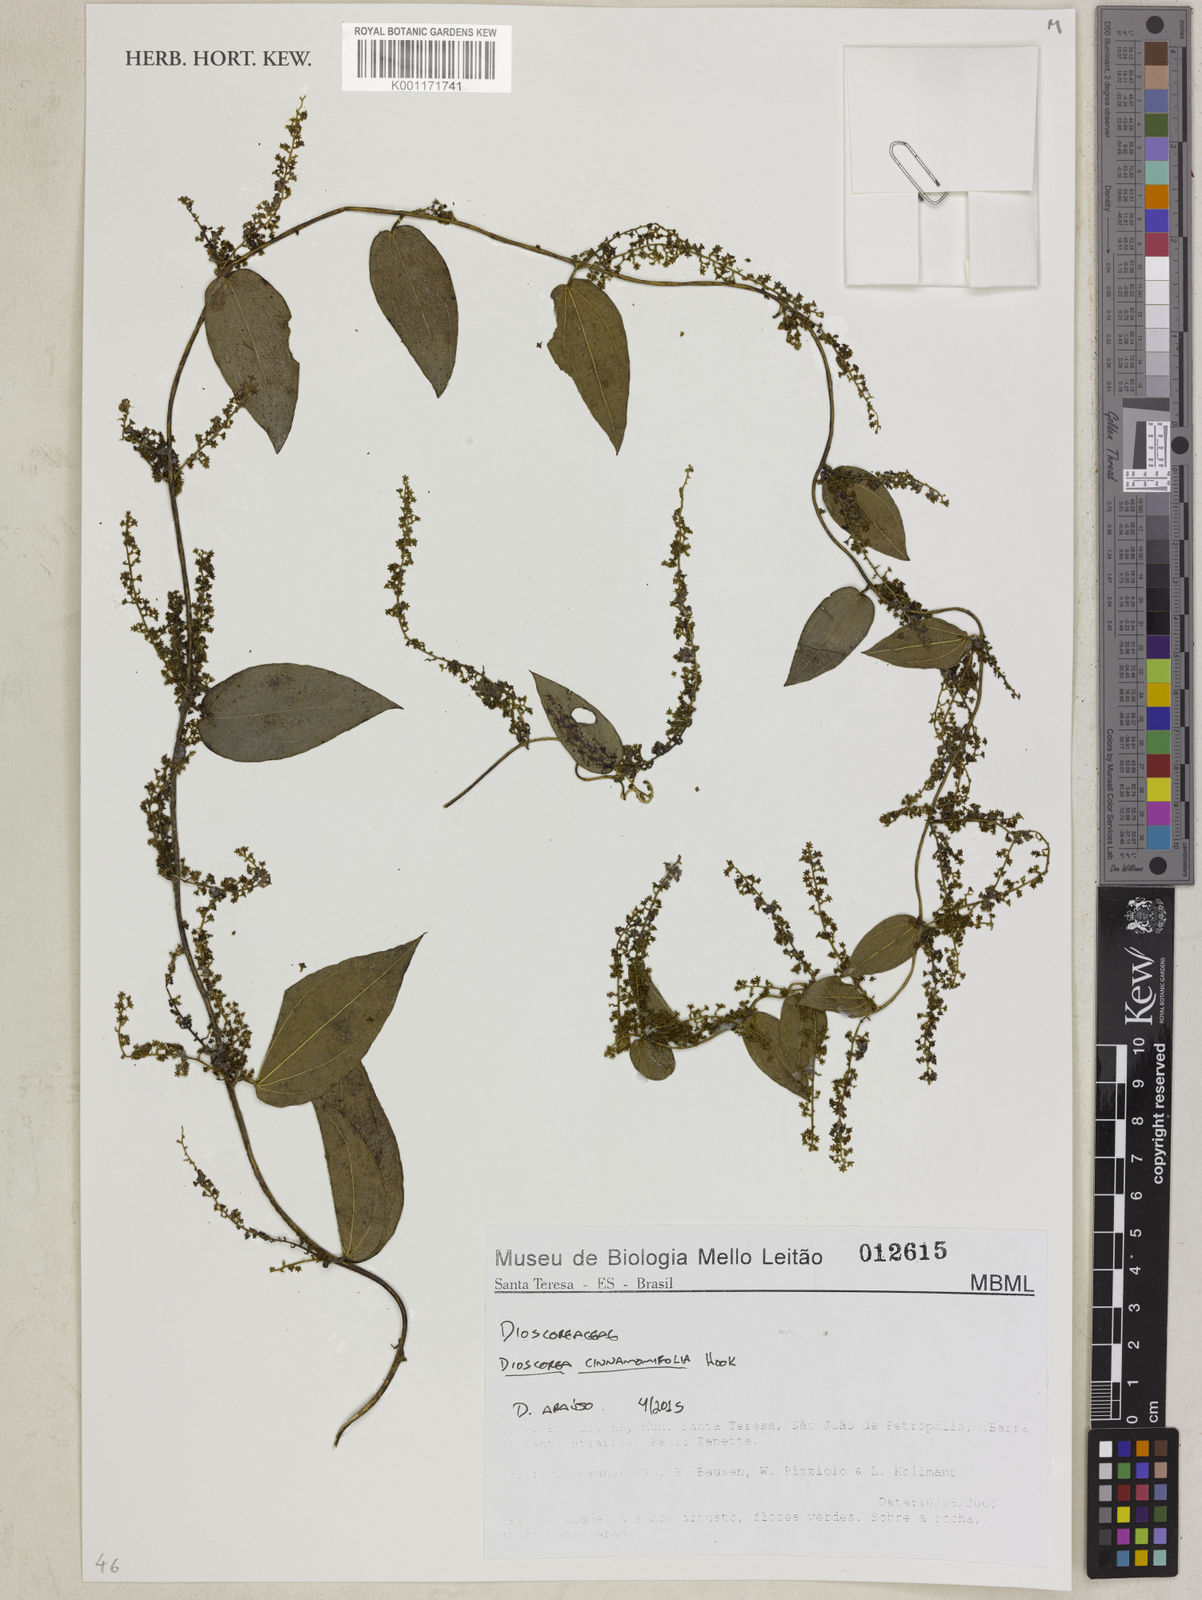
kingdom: Plantae
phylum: Tracheophyta
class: Liliopsida
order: Dioscoreales
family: Dioscoreaceae
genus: Dioscorea
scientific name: Dioscorea cinnamomifolia
